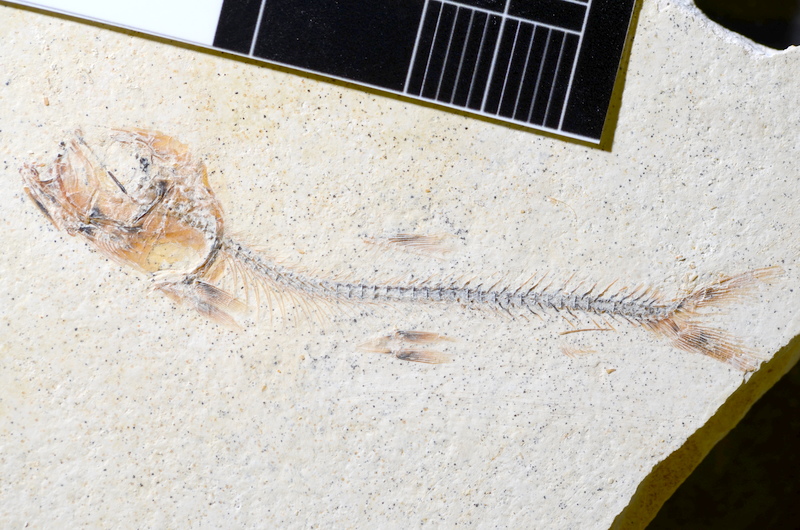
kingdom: Animalia
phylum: Chordata
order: Salmoniformes
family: Orthogonikleithridae
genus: Orthogonikleithrus
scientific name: Orthogonikleithrus hoelli
